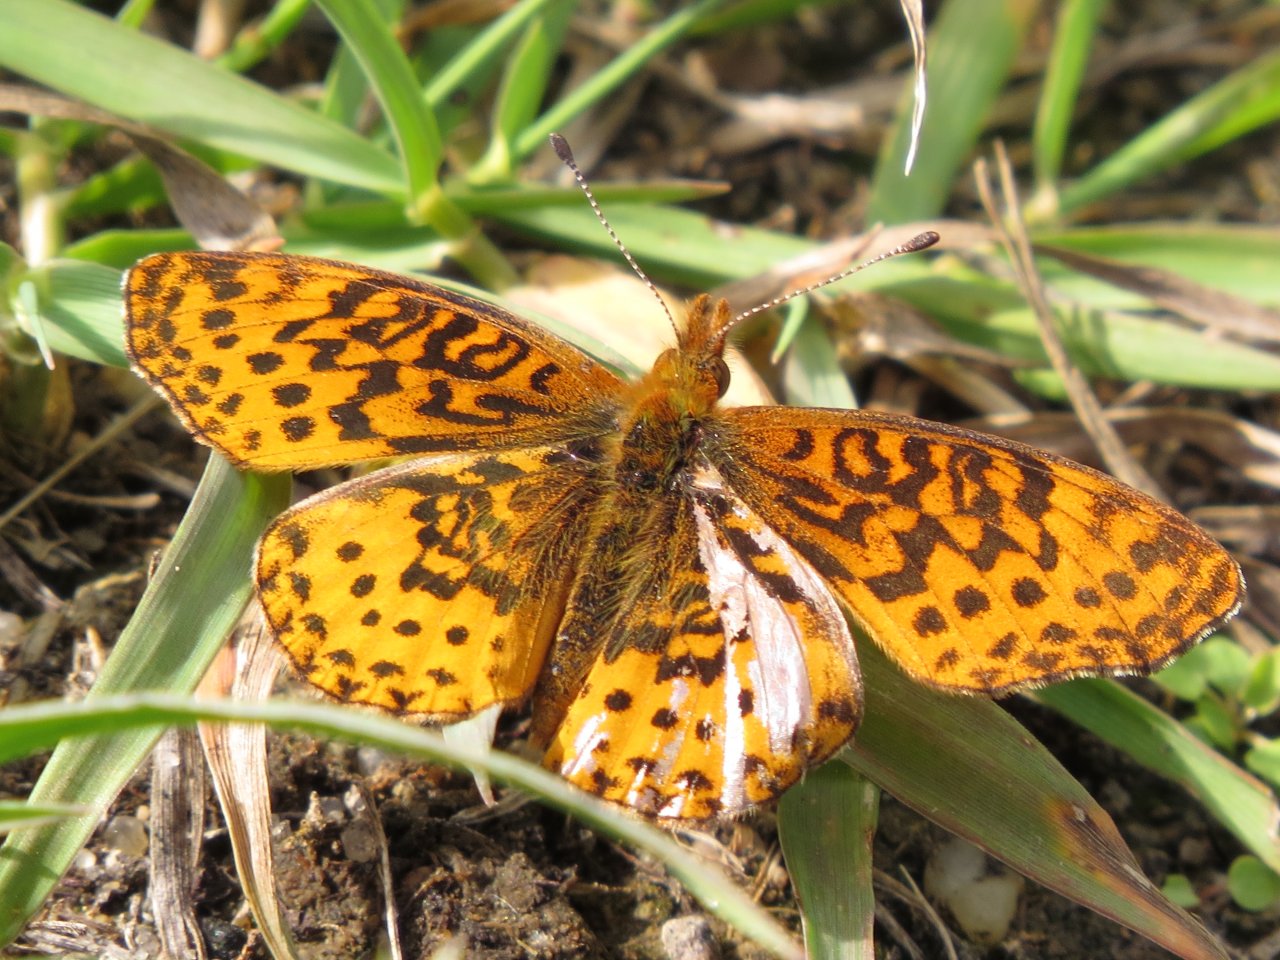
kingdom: Animalia
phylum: Arthropoda
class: Insecta
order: Lepidoptera
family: Nymphalidae
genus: Clossiana
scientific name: Clossiana toddi
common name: Meadow Fritillary
